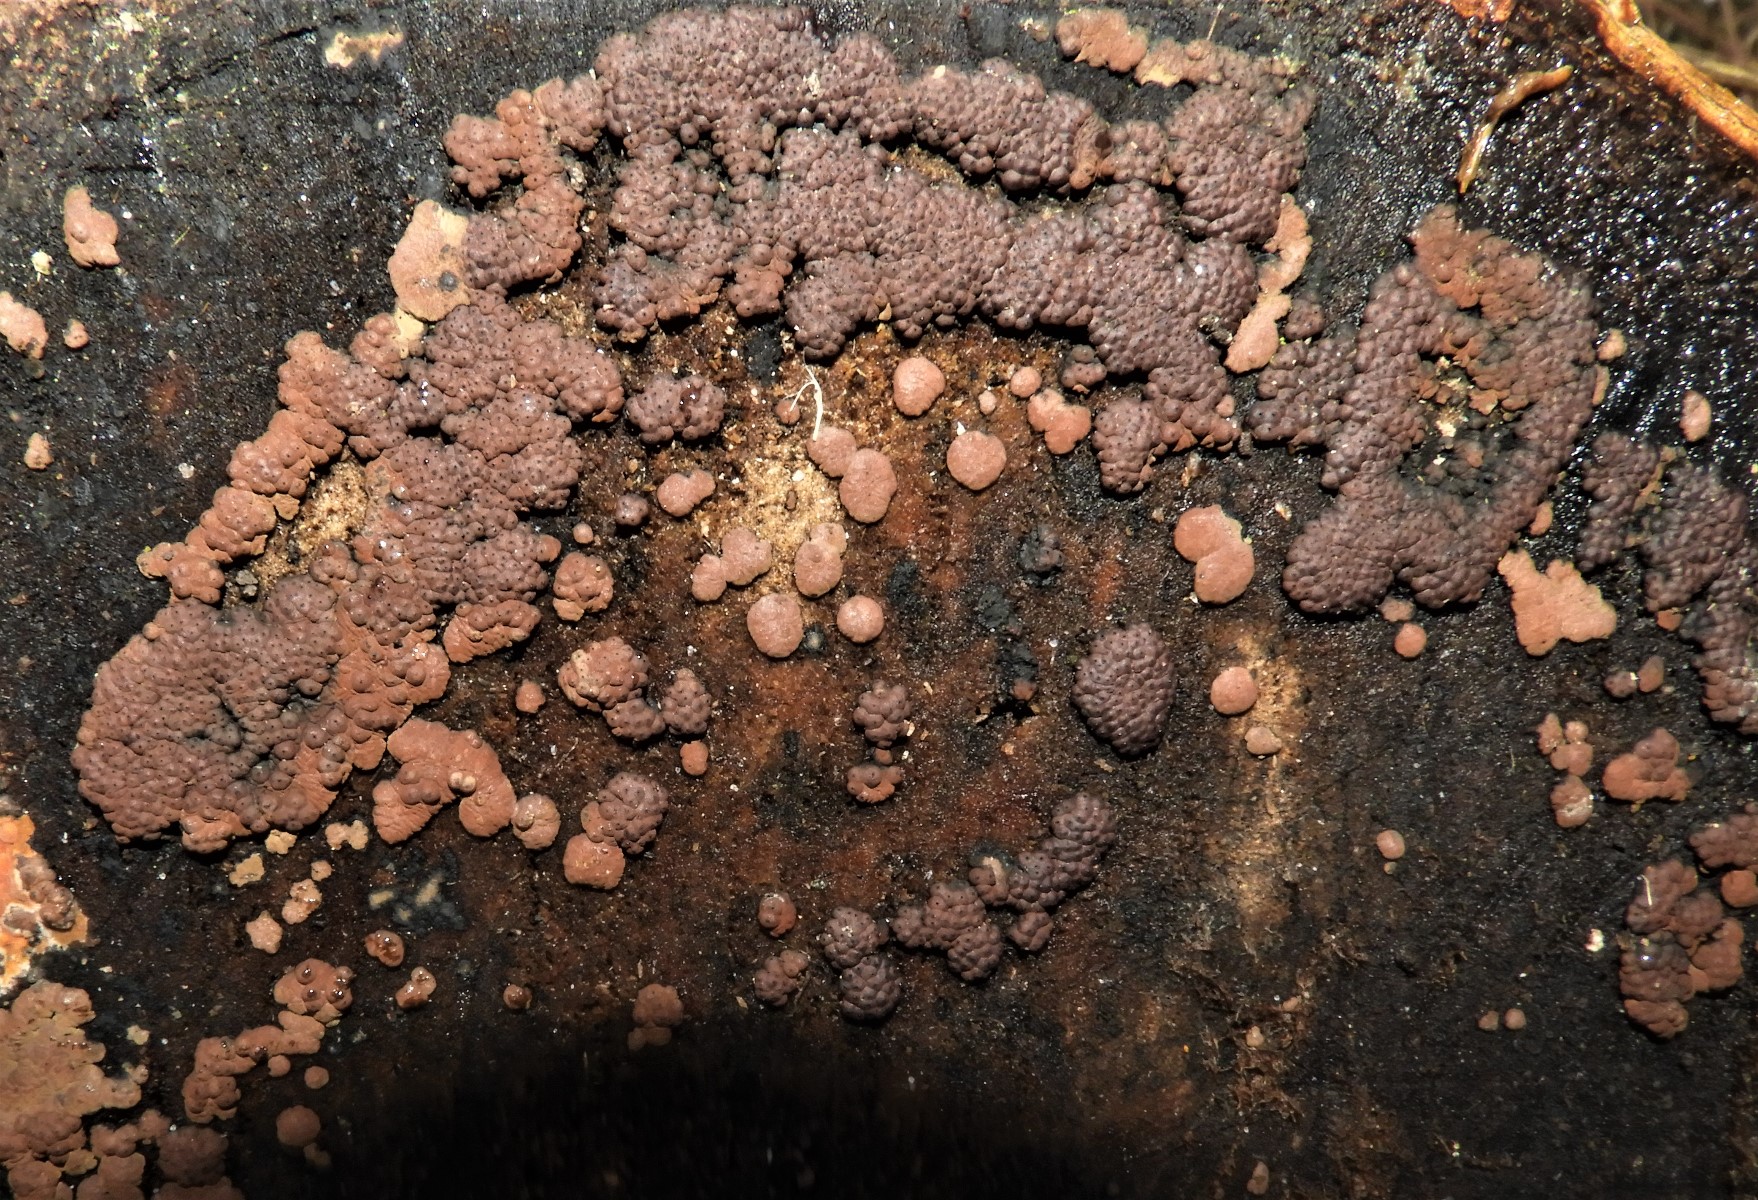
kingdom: Fungi
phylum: Ascomycota
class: Sordariomycetes
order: Xylariales
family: Hypoxylaceae
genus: Jackrogersella
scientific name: Jackrogersella cohaerens
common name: sammenflydende kulbær
